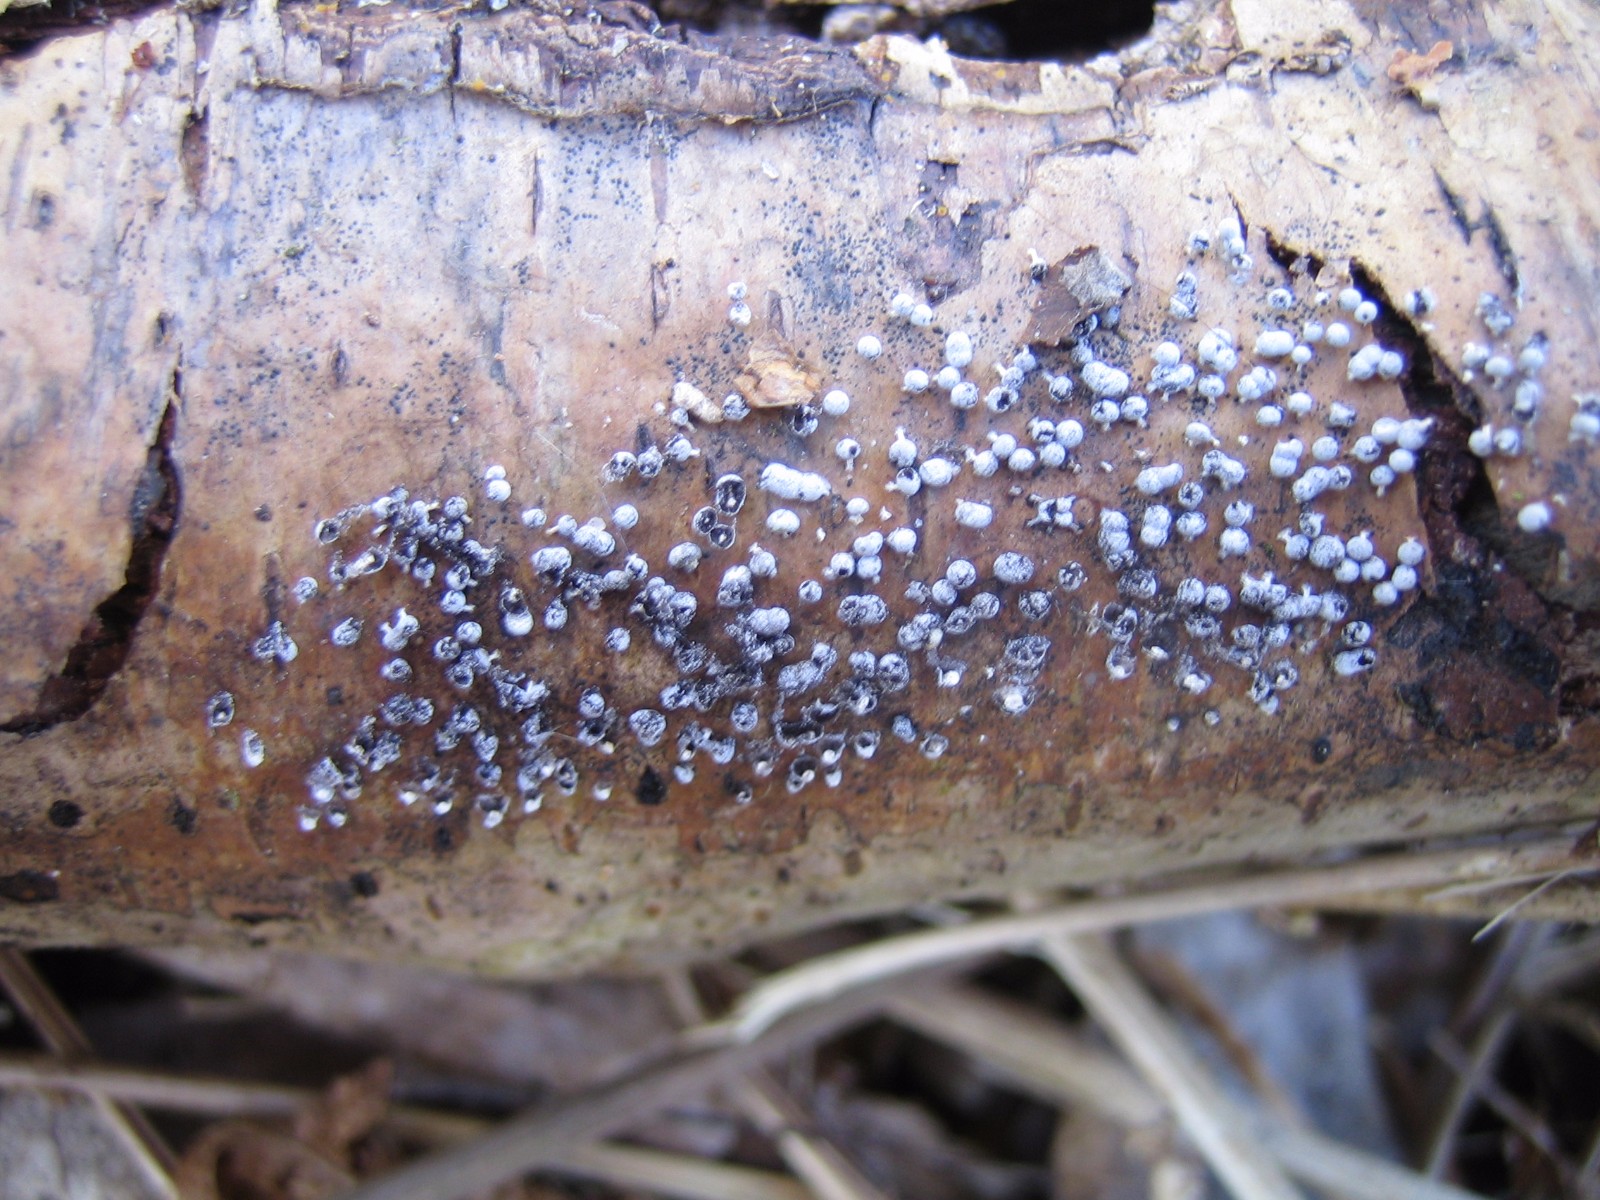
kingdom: Protozoa
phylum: Mycetozoa
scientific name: Mycetozoa
